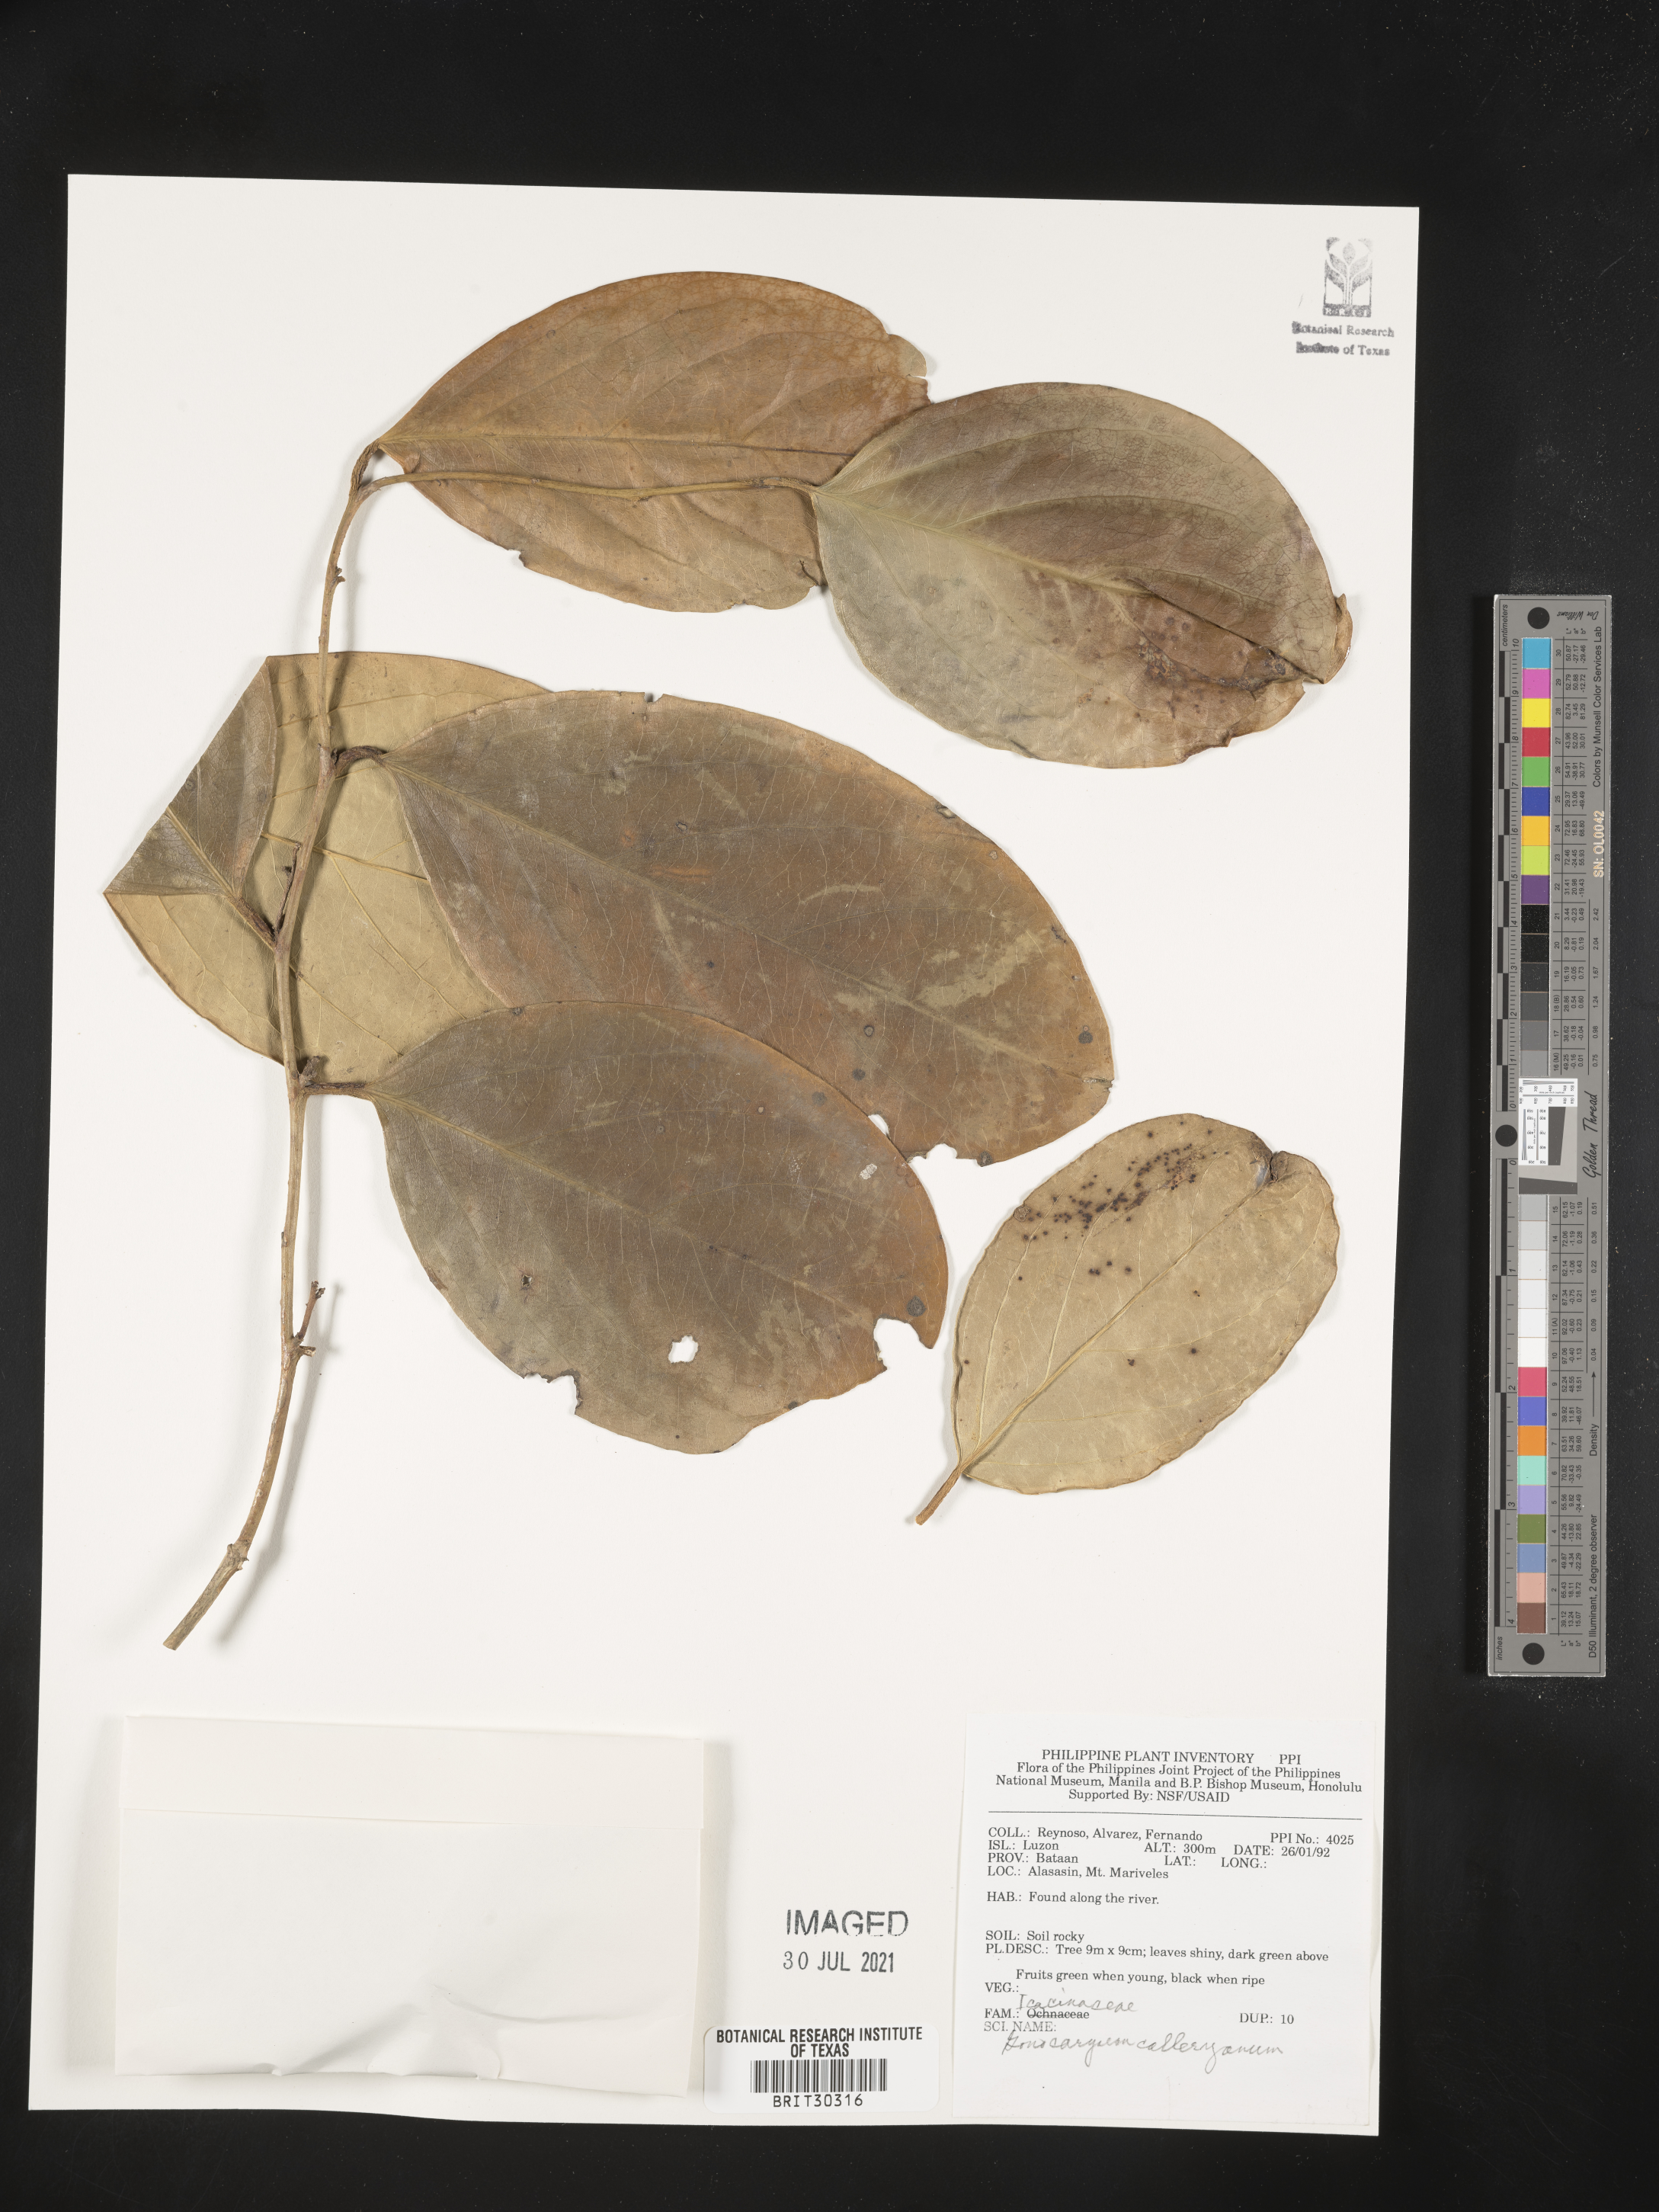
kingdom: Plantae
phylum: Tracheophyta
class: Magnoliopsida
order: Cardiopteridales
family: Cardiopteridaceae
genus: Gonocaryum
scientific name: Gonocaryum calleryanum
